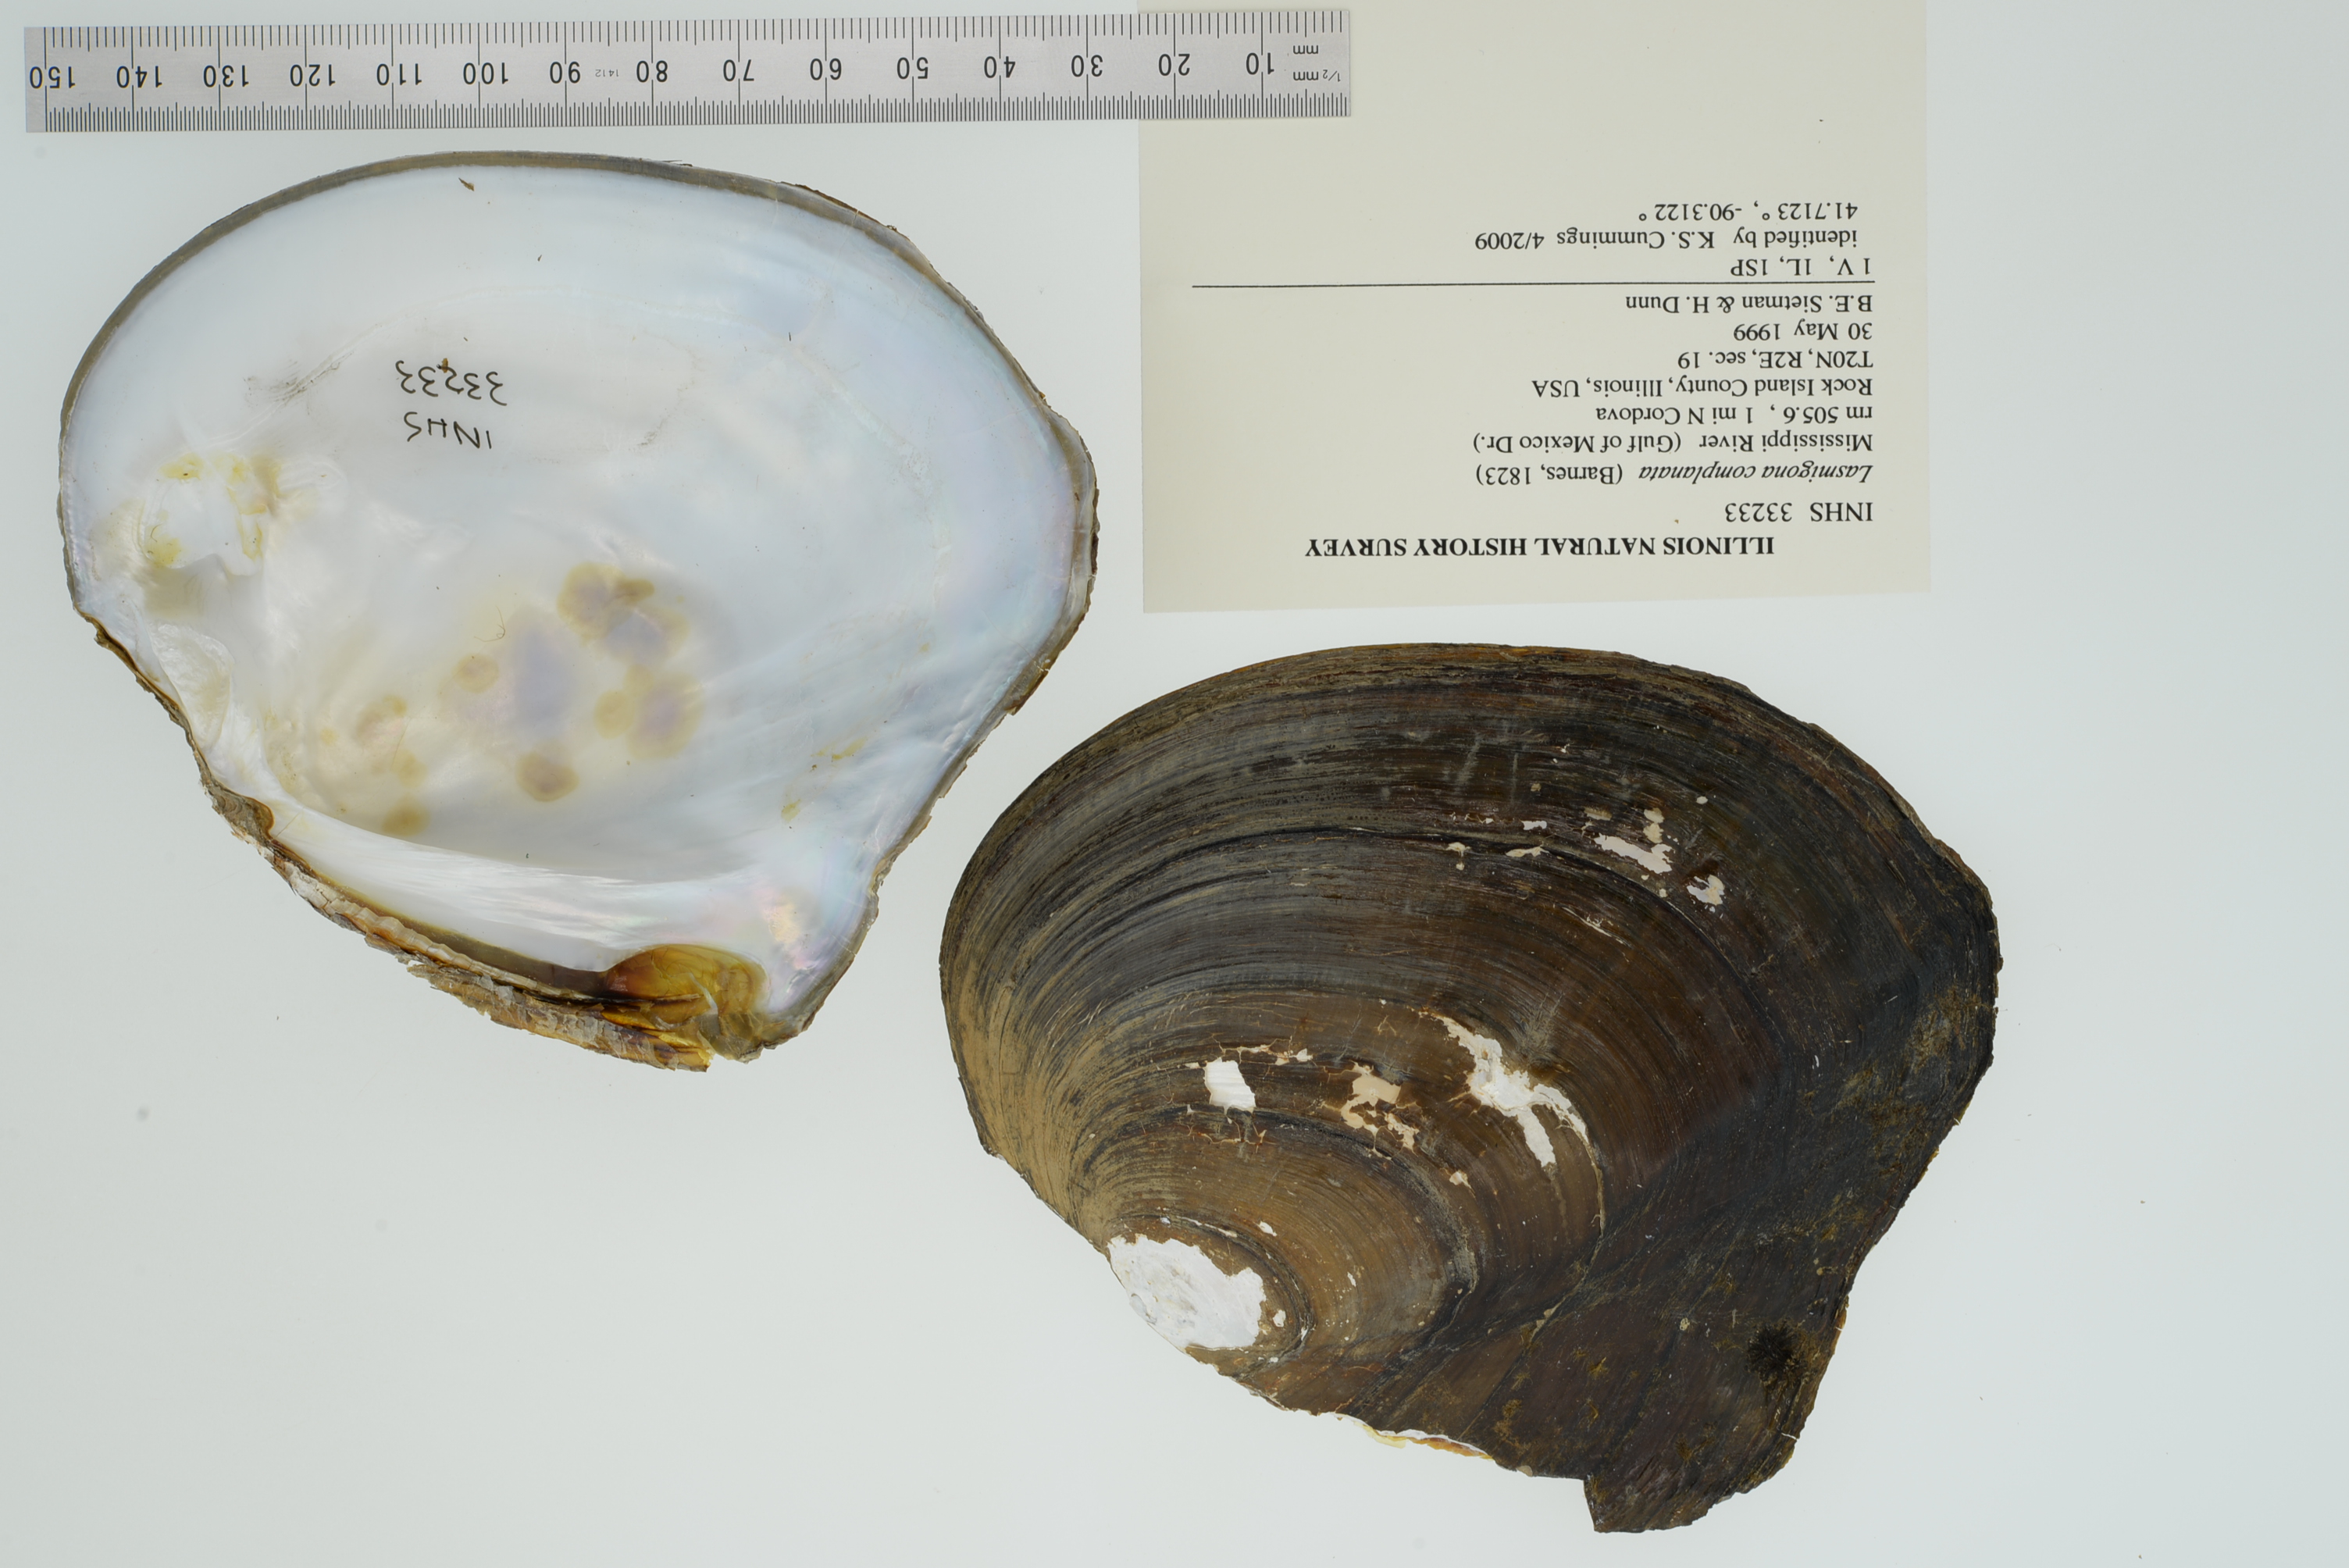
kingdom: Animalia
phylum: Mollusca
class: Bivalvia
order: Unionida
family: Unionidae
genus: Lasmigona
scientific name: Lasmigona complanata
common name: White heelsplitter
